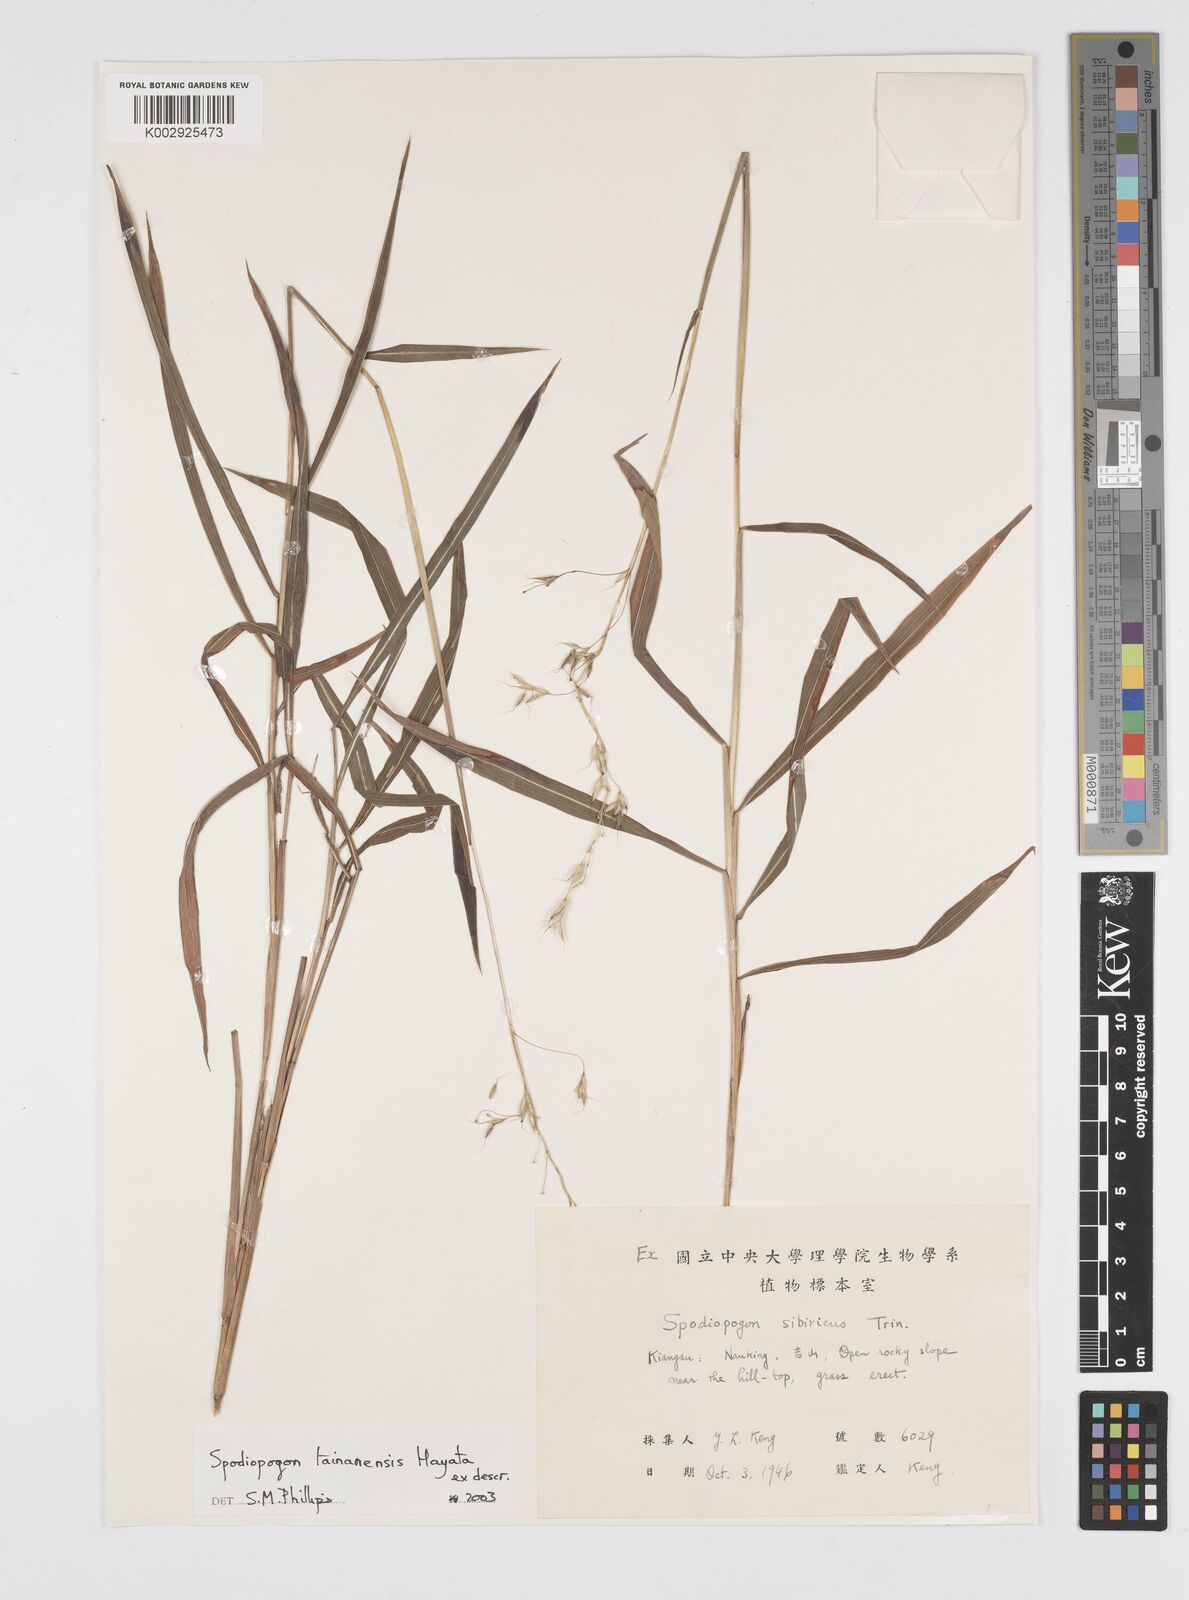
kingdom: Plantae
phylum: Tracheophyta
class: Liliopsida
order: Poales
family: Poaceae
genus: Spodiopogon
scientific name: Spodiopogon tainanensis
